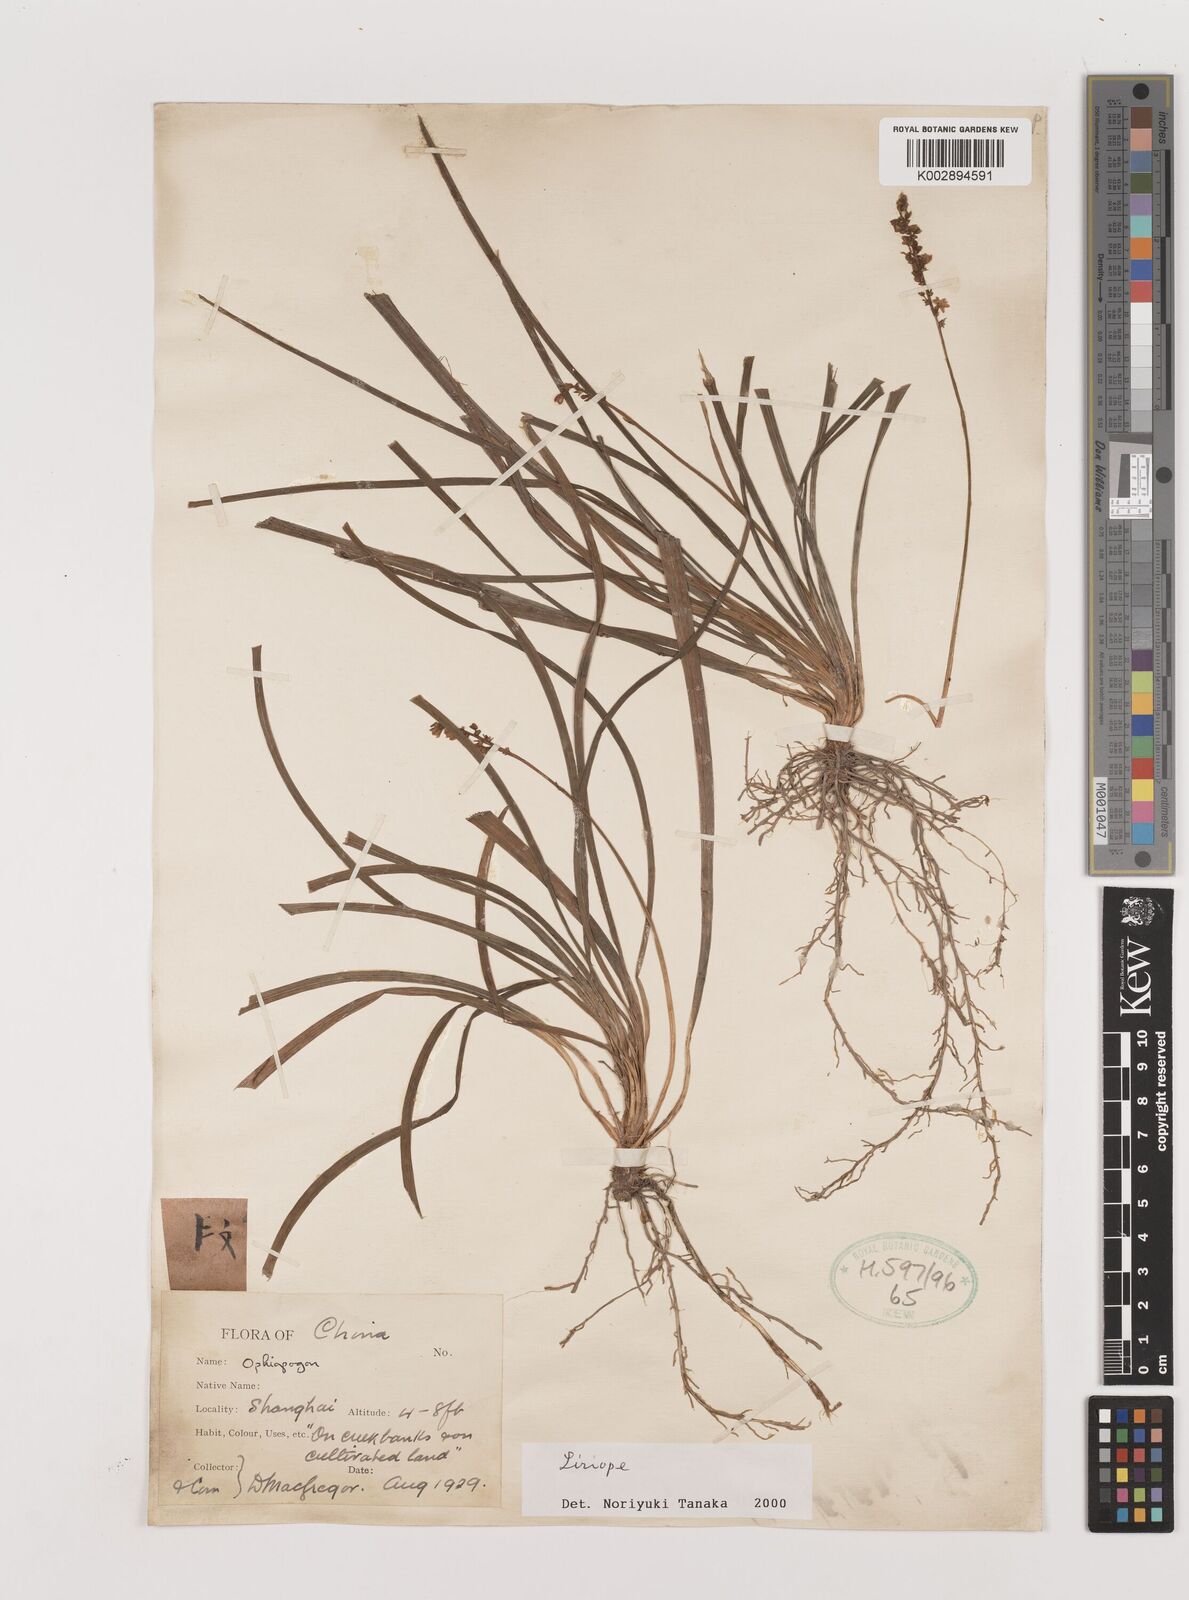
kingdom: Plantae
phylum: Tracheophyta
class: Liliopsida
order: Asparagales
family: Asparagaceae
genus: Liriope
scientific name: Liriope
